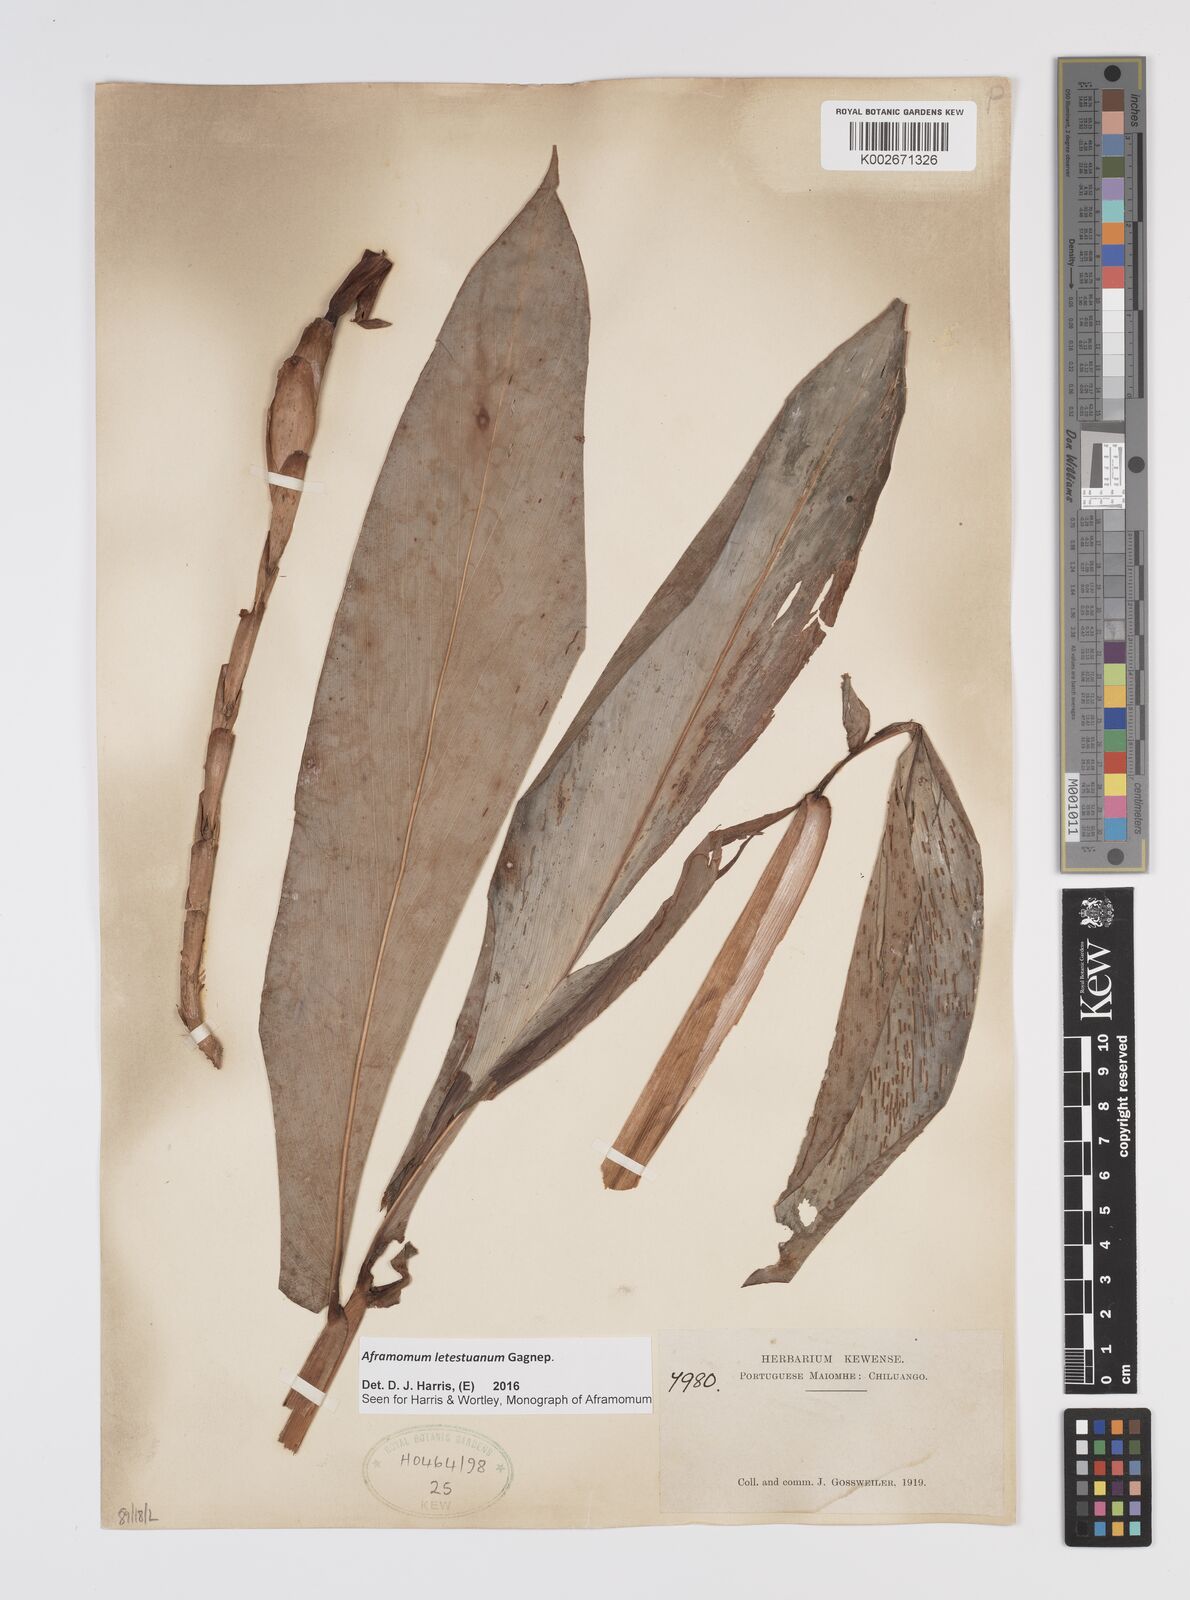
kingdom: Plantae
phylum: Tracheophyta
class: Liliopsida
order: Zingiberales
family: Zingiberaceae
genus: Aframomum
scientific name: Aframomum letestuanum
